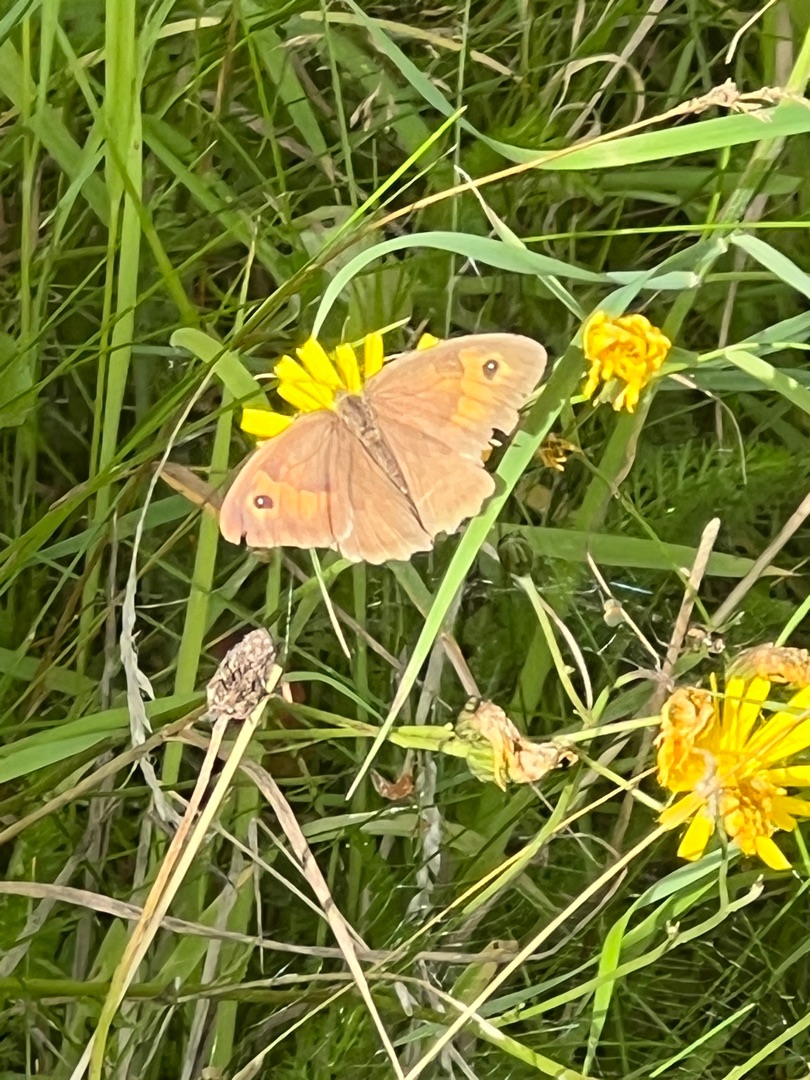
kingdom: Animalia
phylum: Arthropoda
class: Insecta
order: Lepidoptera
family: Nymphalidae
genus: Maniola
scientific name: Maniola jurtina
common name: Græsrandøje
